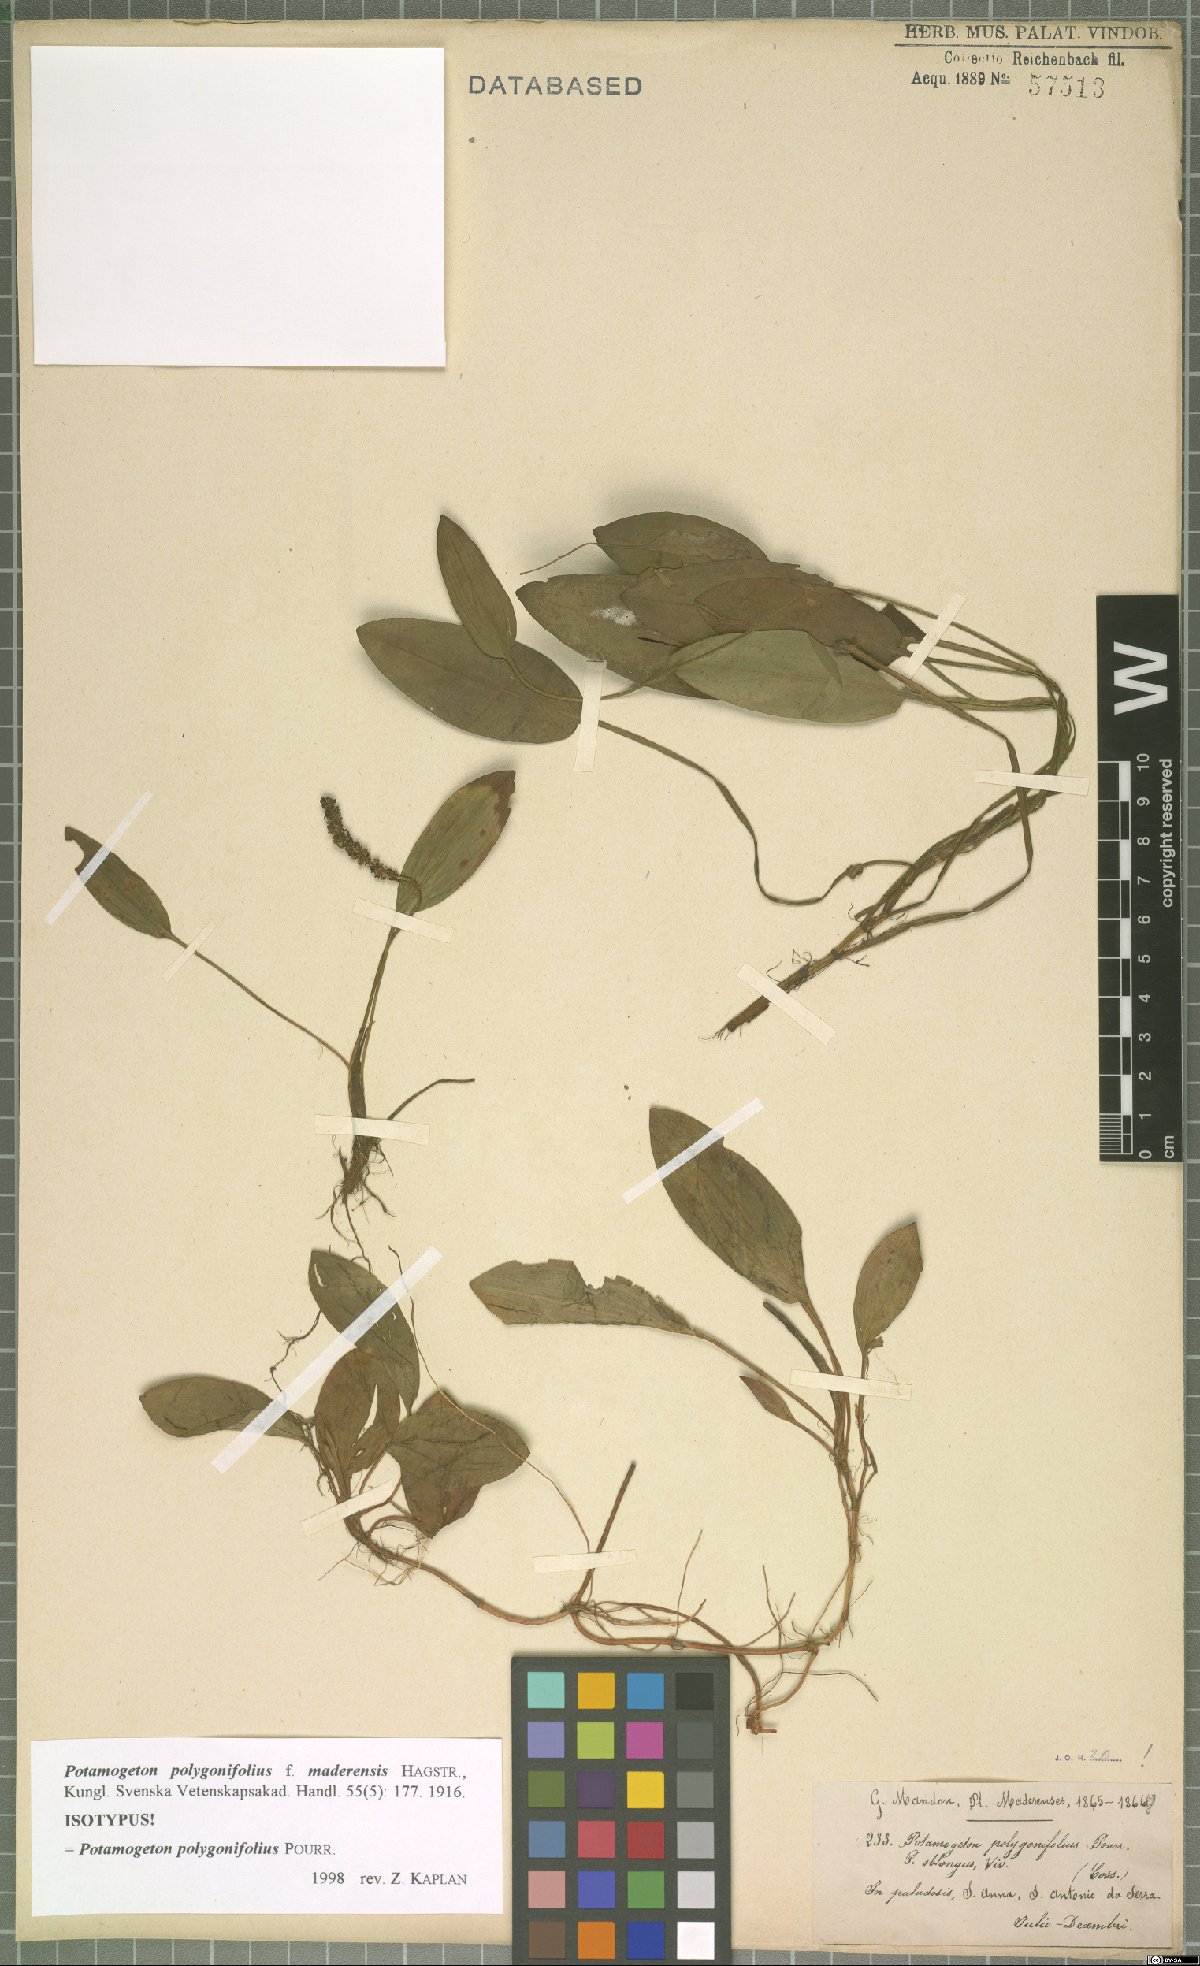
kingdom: Plantae
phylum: Tracheophyta
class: Liliopsida
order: Alismatales
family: Potamogetonaceae
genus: Potamogeton
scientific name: Potamogeton polygonifolius
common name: Bog pondweed
